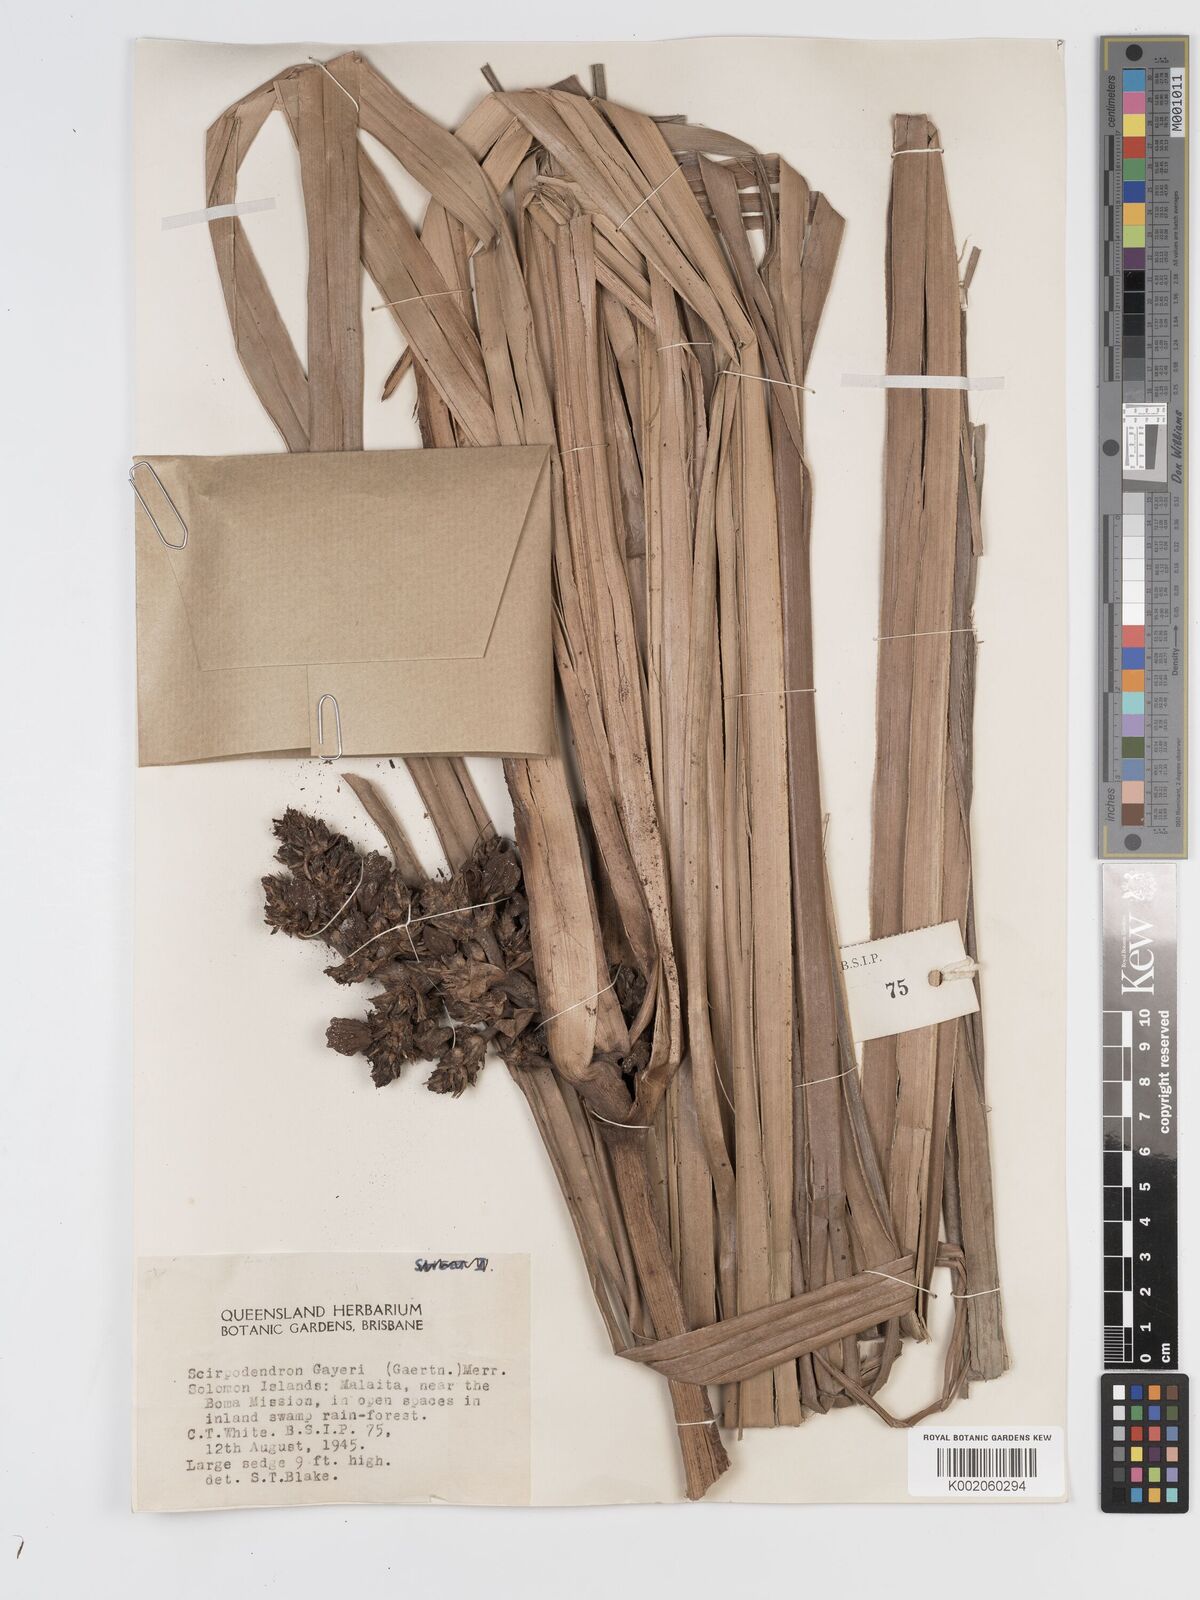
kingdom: Plantae
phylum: Tracheophyta
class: Liliopsida
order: Poales
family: Cyperaceae
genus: Scirpodendron
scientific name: Scirpodendron ghaeri
